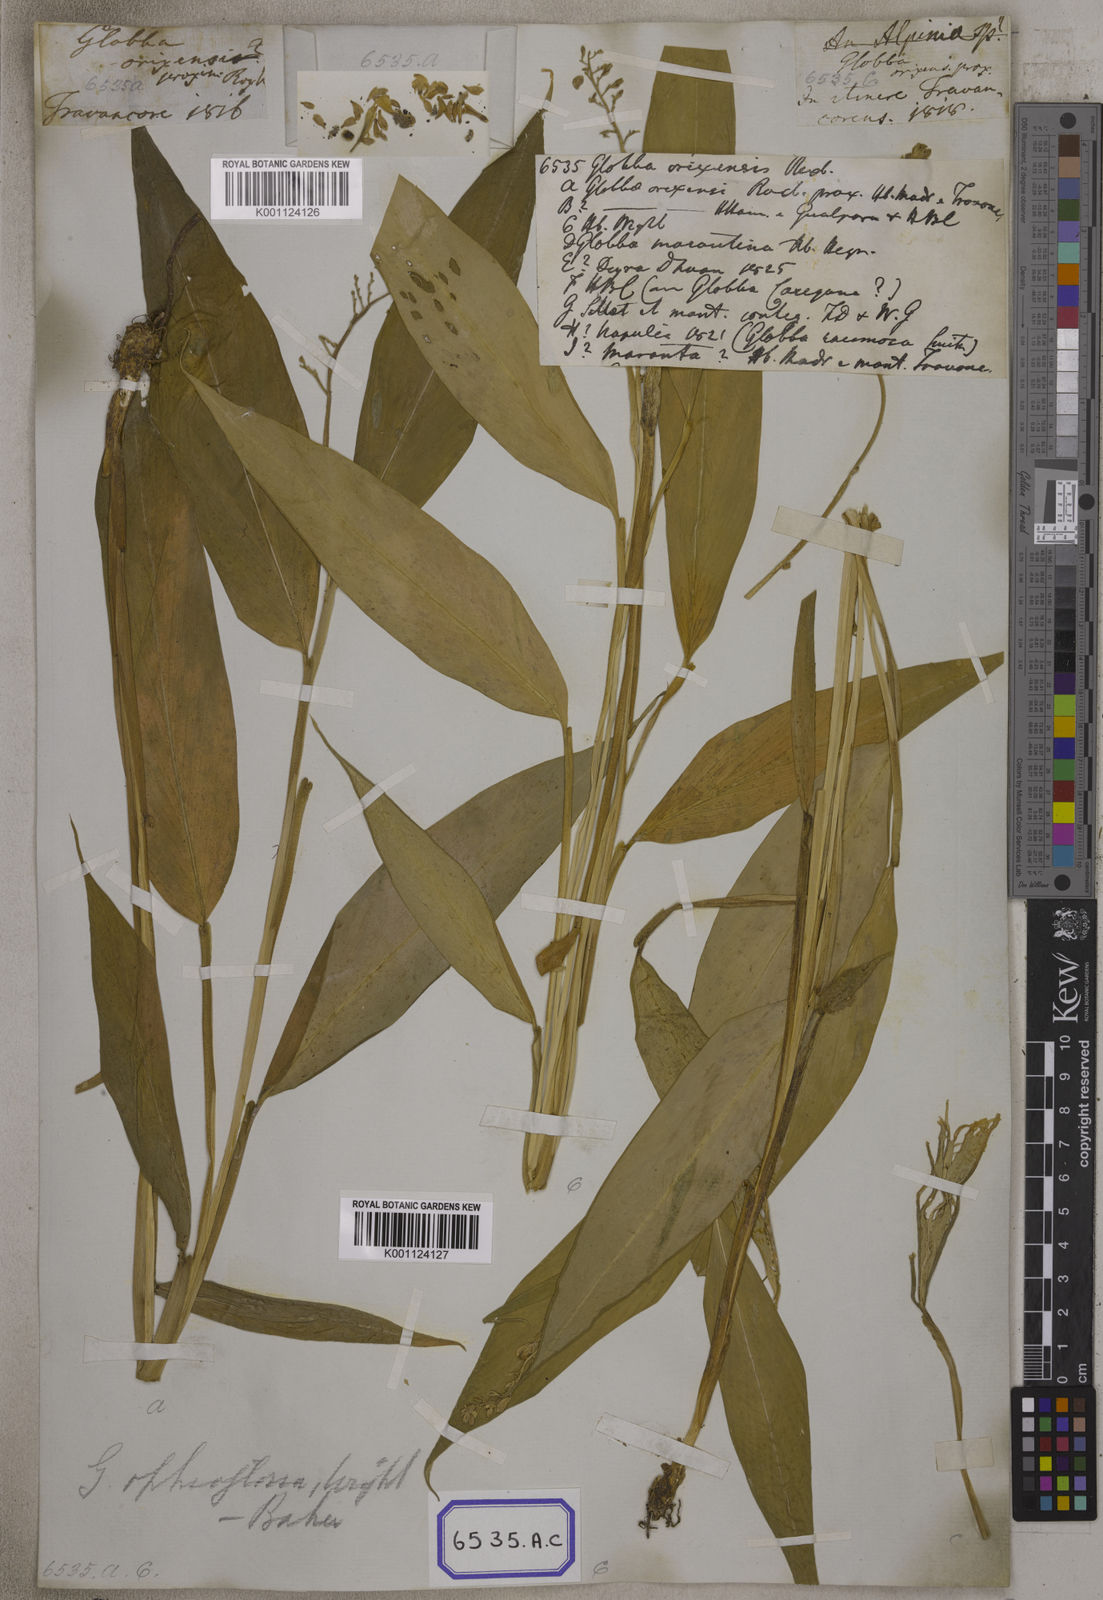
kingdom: Plantae
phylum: Tracheophyta
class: Liliopsida
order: Zingiberales
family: Zingiberaceae
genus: Globba
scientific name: Globba
